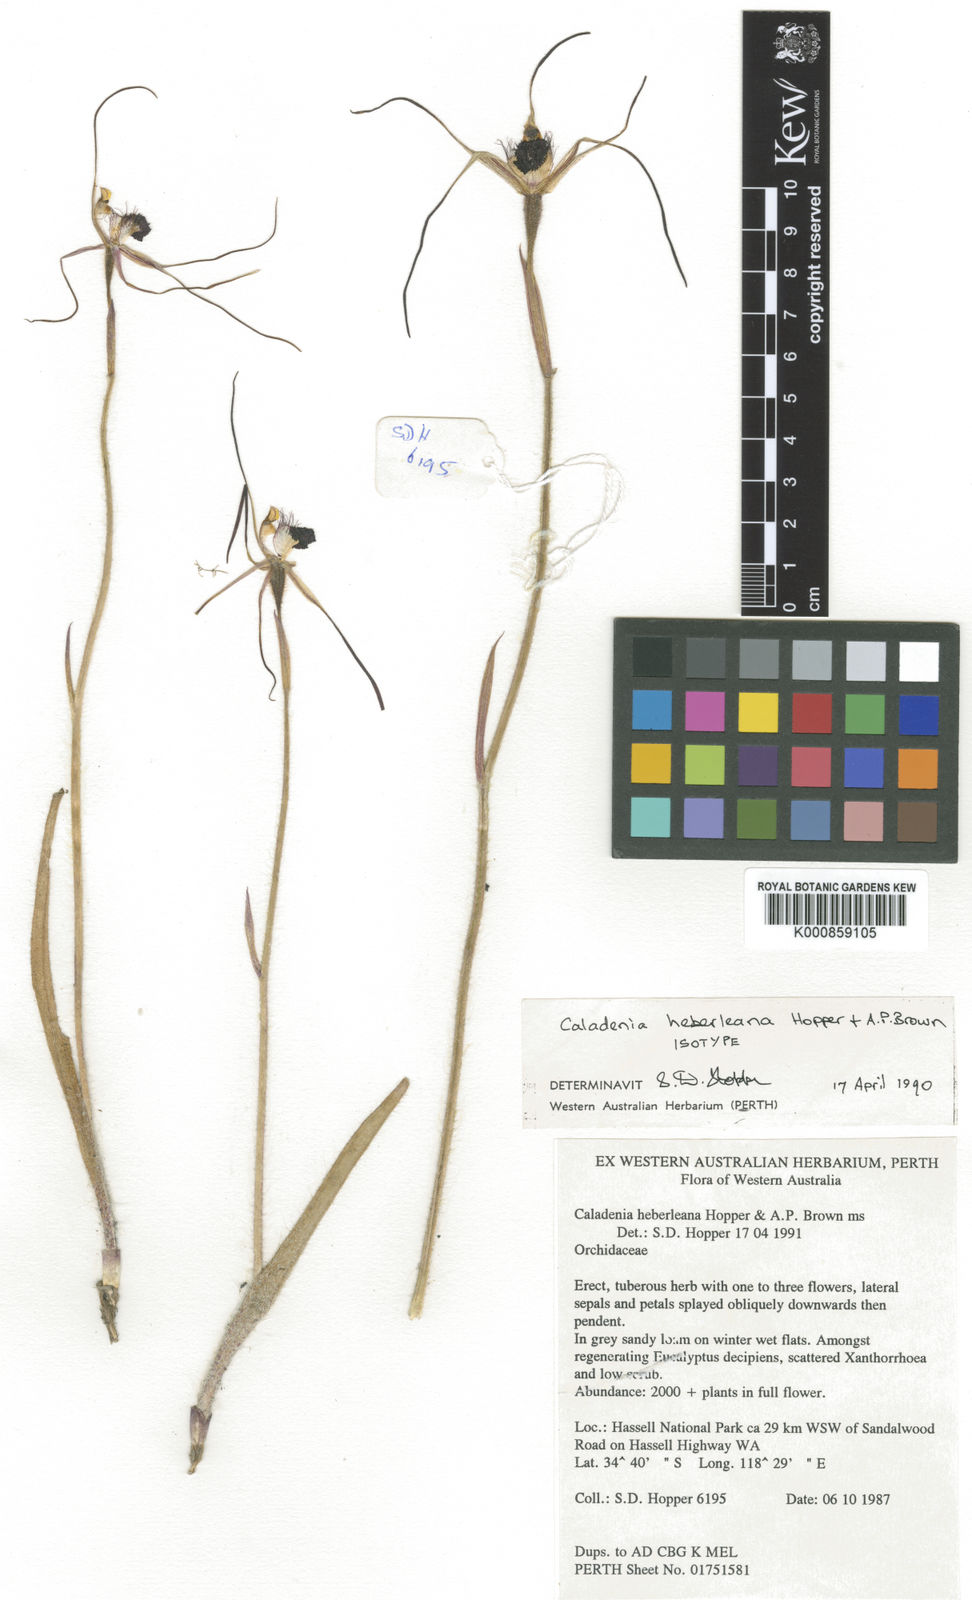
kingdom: Plantae
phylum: Tracheophyta
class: Liliopsida
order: Asparagales
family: Orchidaceae
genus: Caladenia
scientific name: Caladenia heberleana
